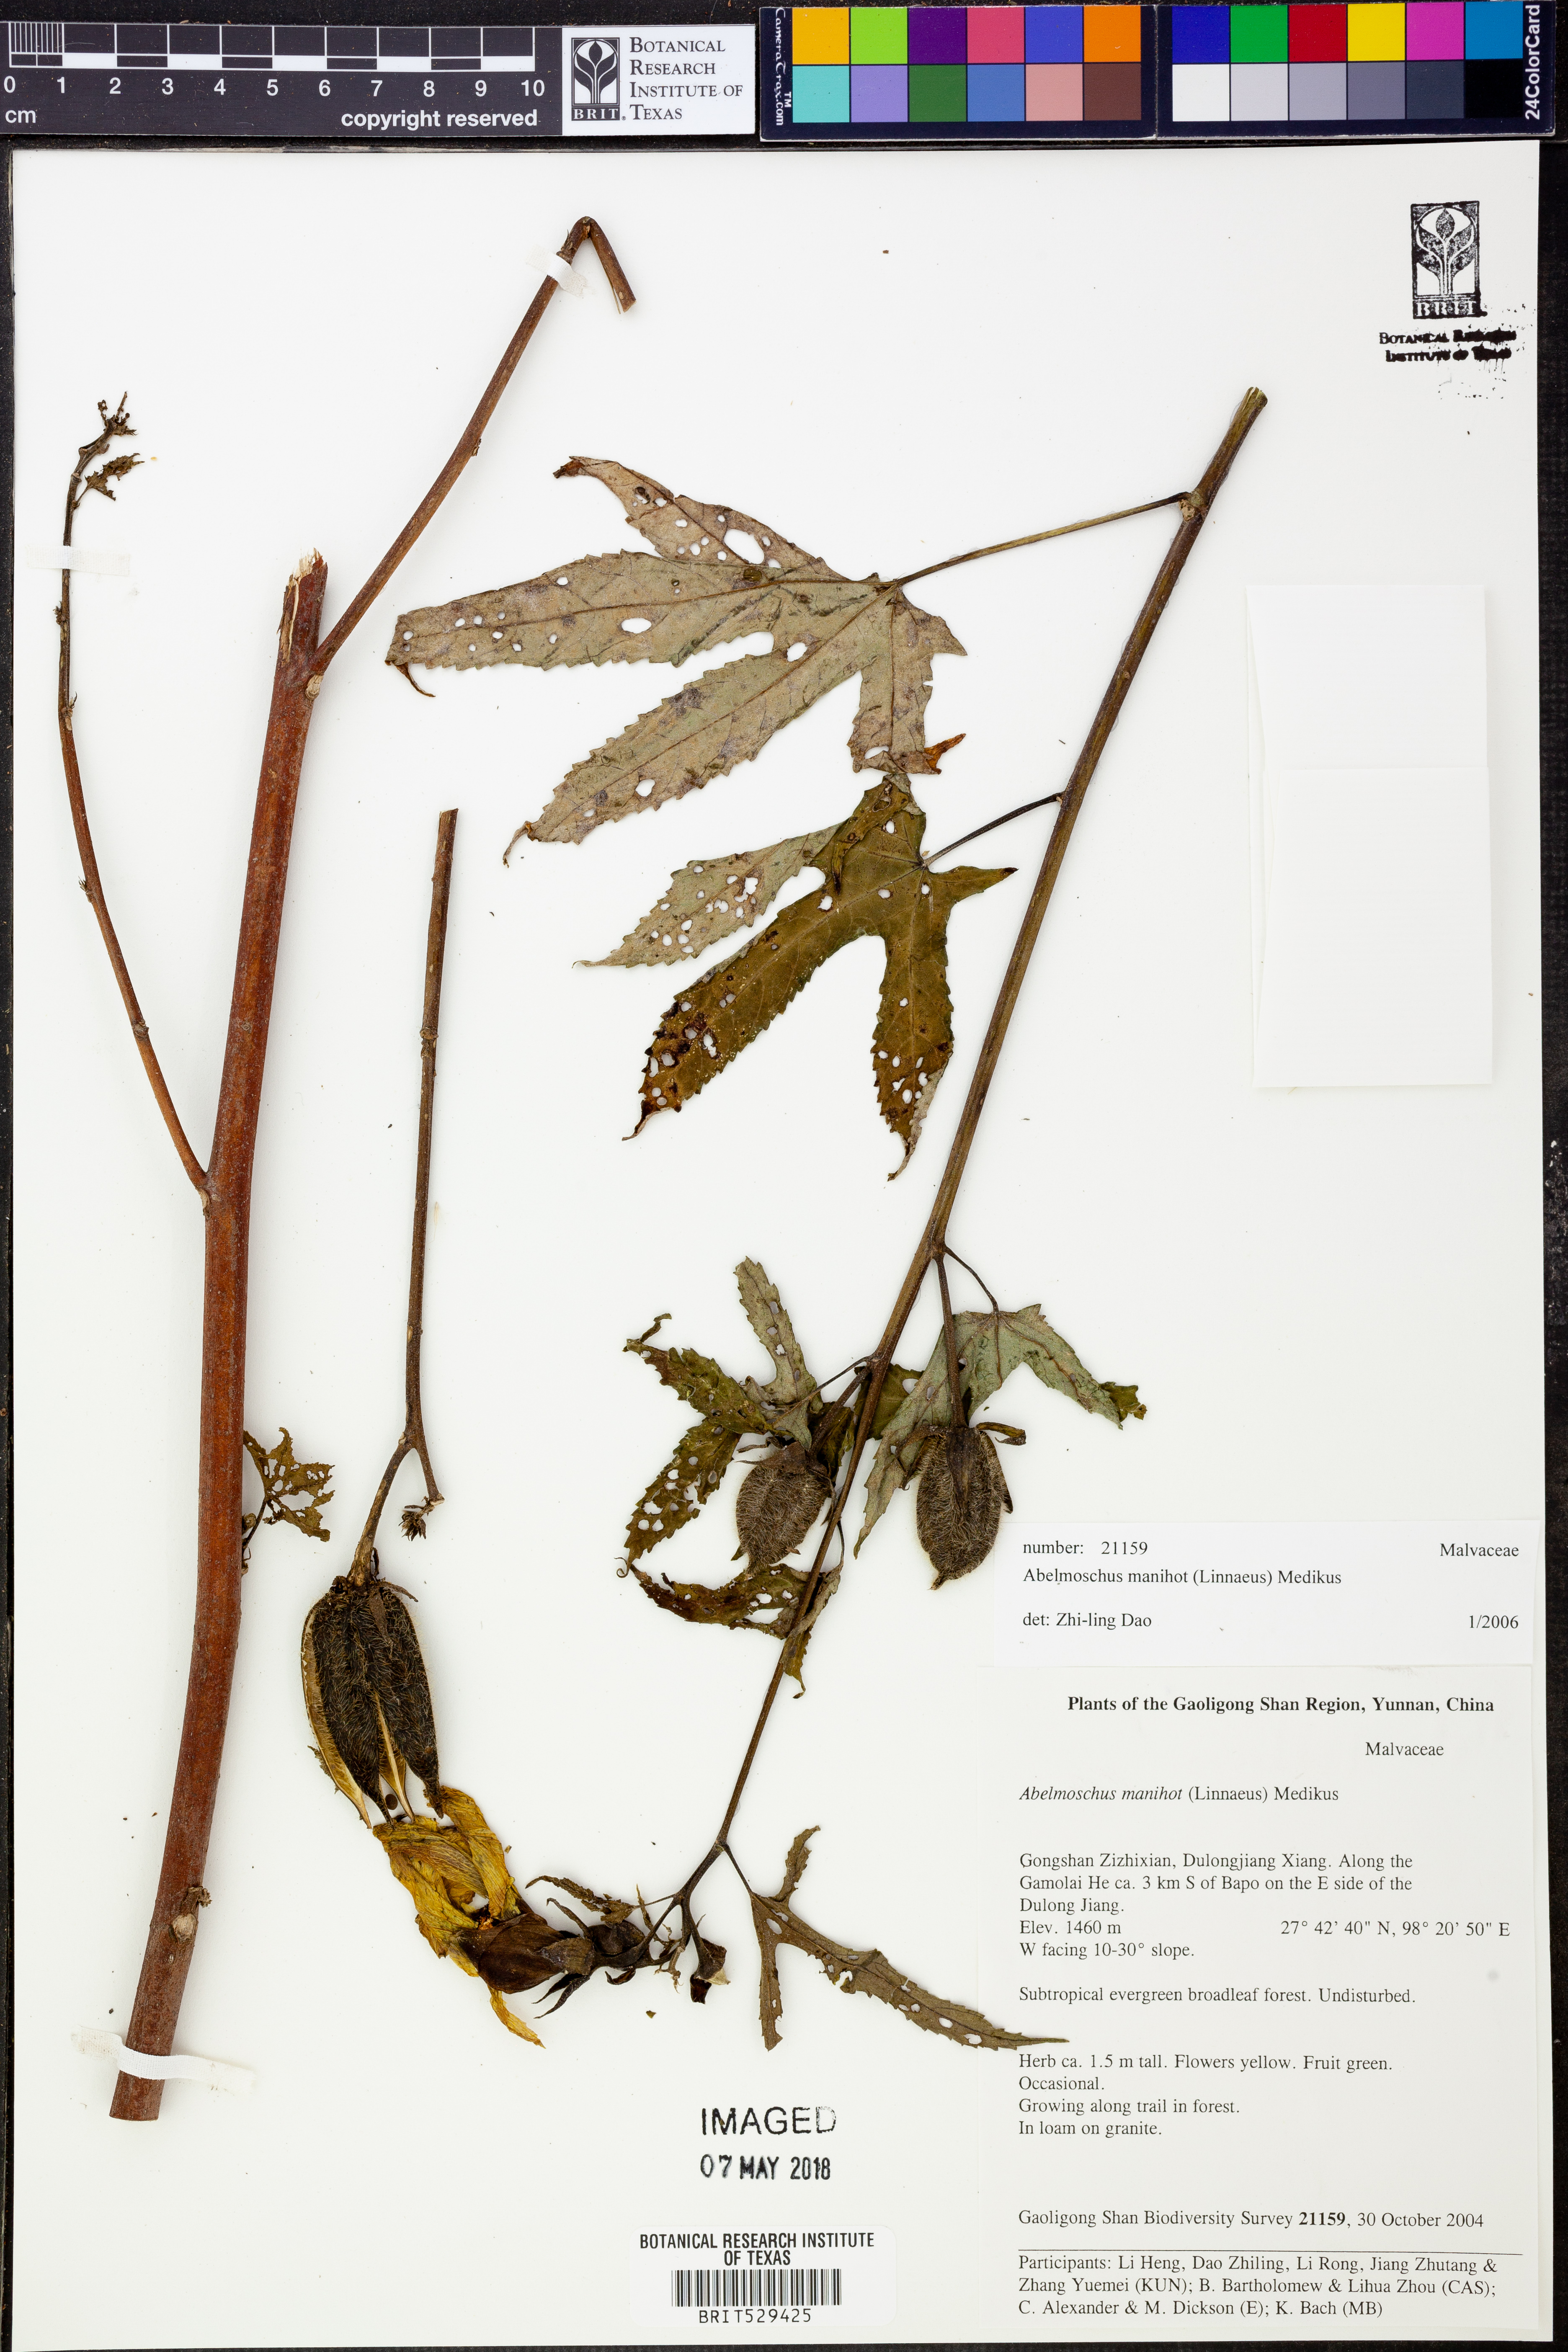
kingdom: Plantae
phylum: Tracheophyta
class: Magnoliopsida
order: Malvales
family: Malvaceae
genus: Abelmoschus
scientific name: Abelmoschus manihot
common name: Sunset muskmallow
